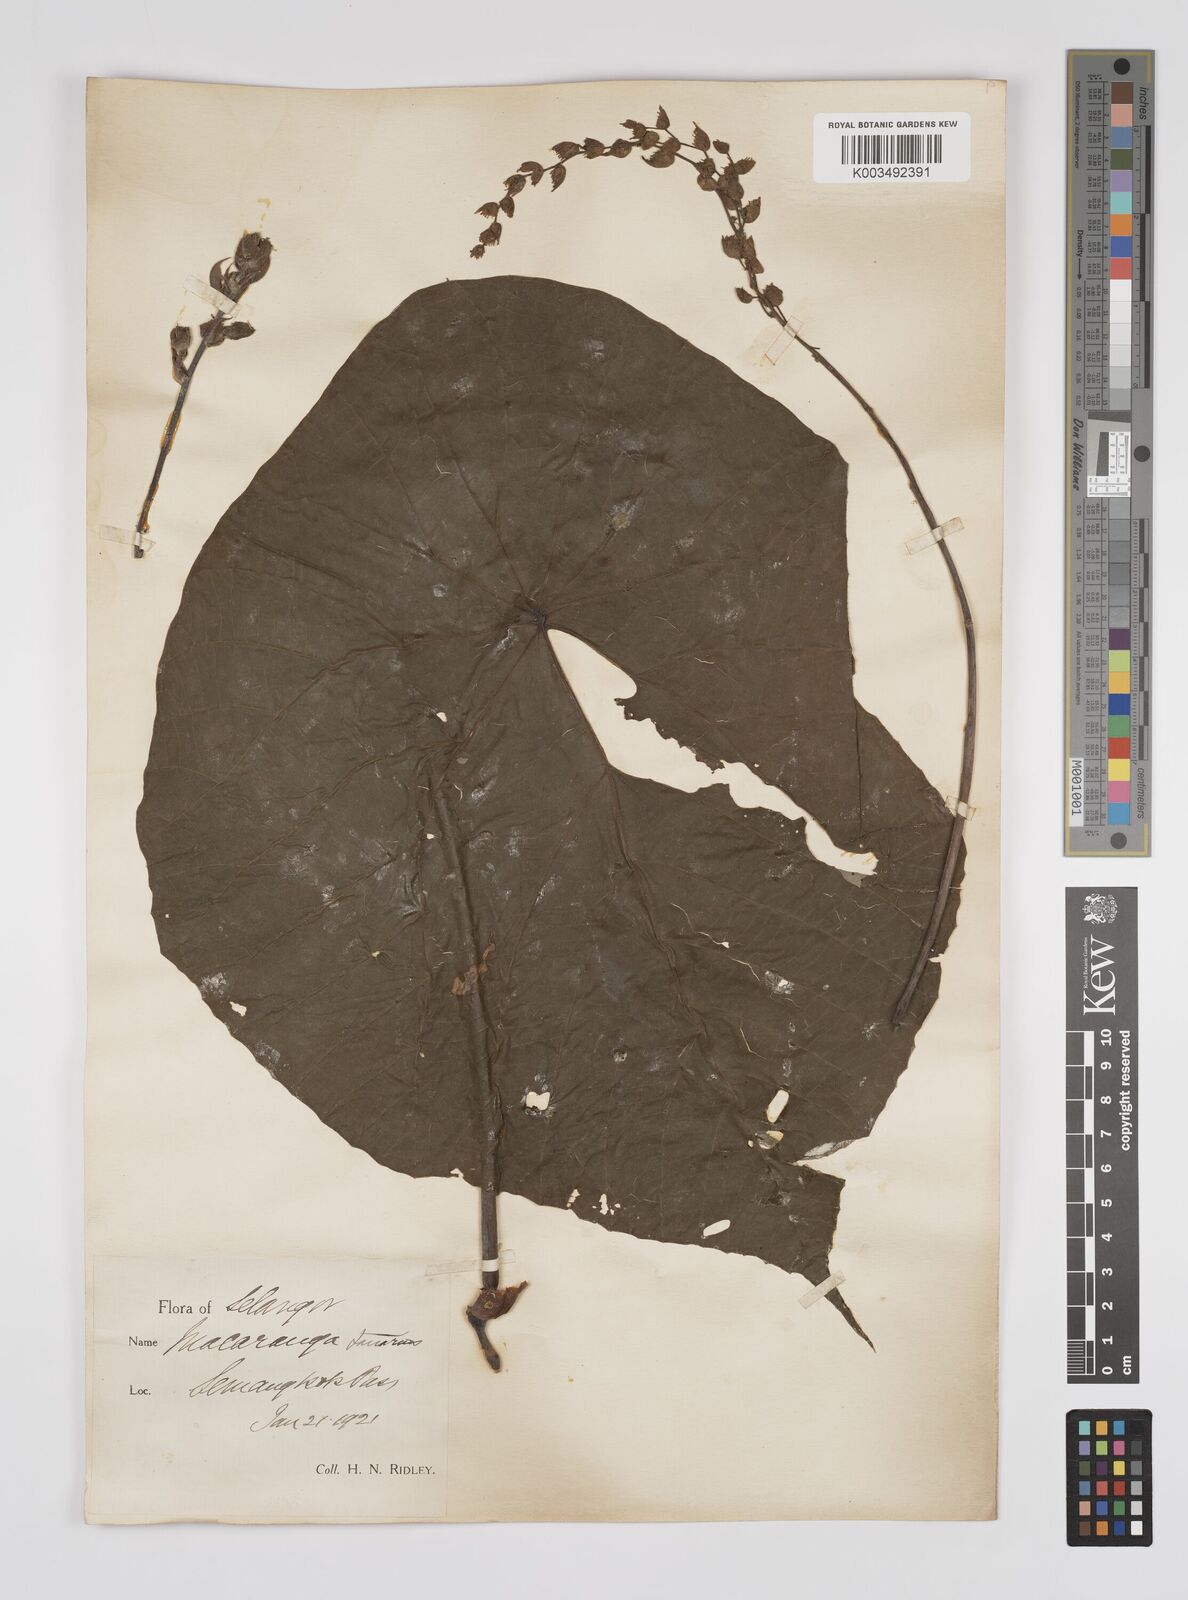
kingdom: Plantae
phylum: Tracheophyta
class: Magnoliopsida
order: Malpighiales
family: Euphorbiaceae
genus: Macaranga
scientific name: Macaranga tanarius
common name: Parasol leaf tree
